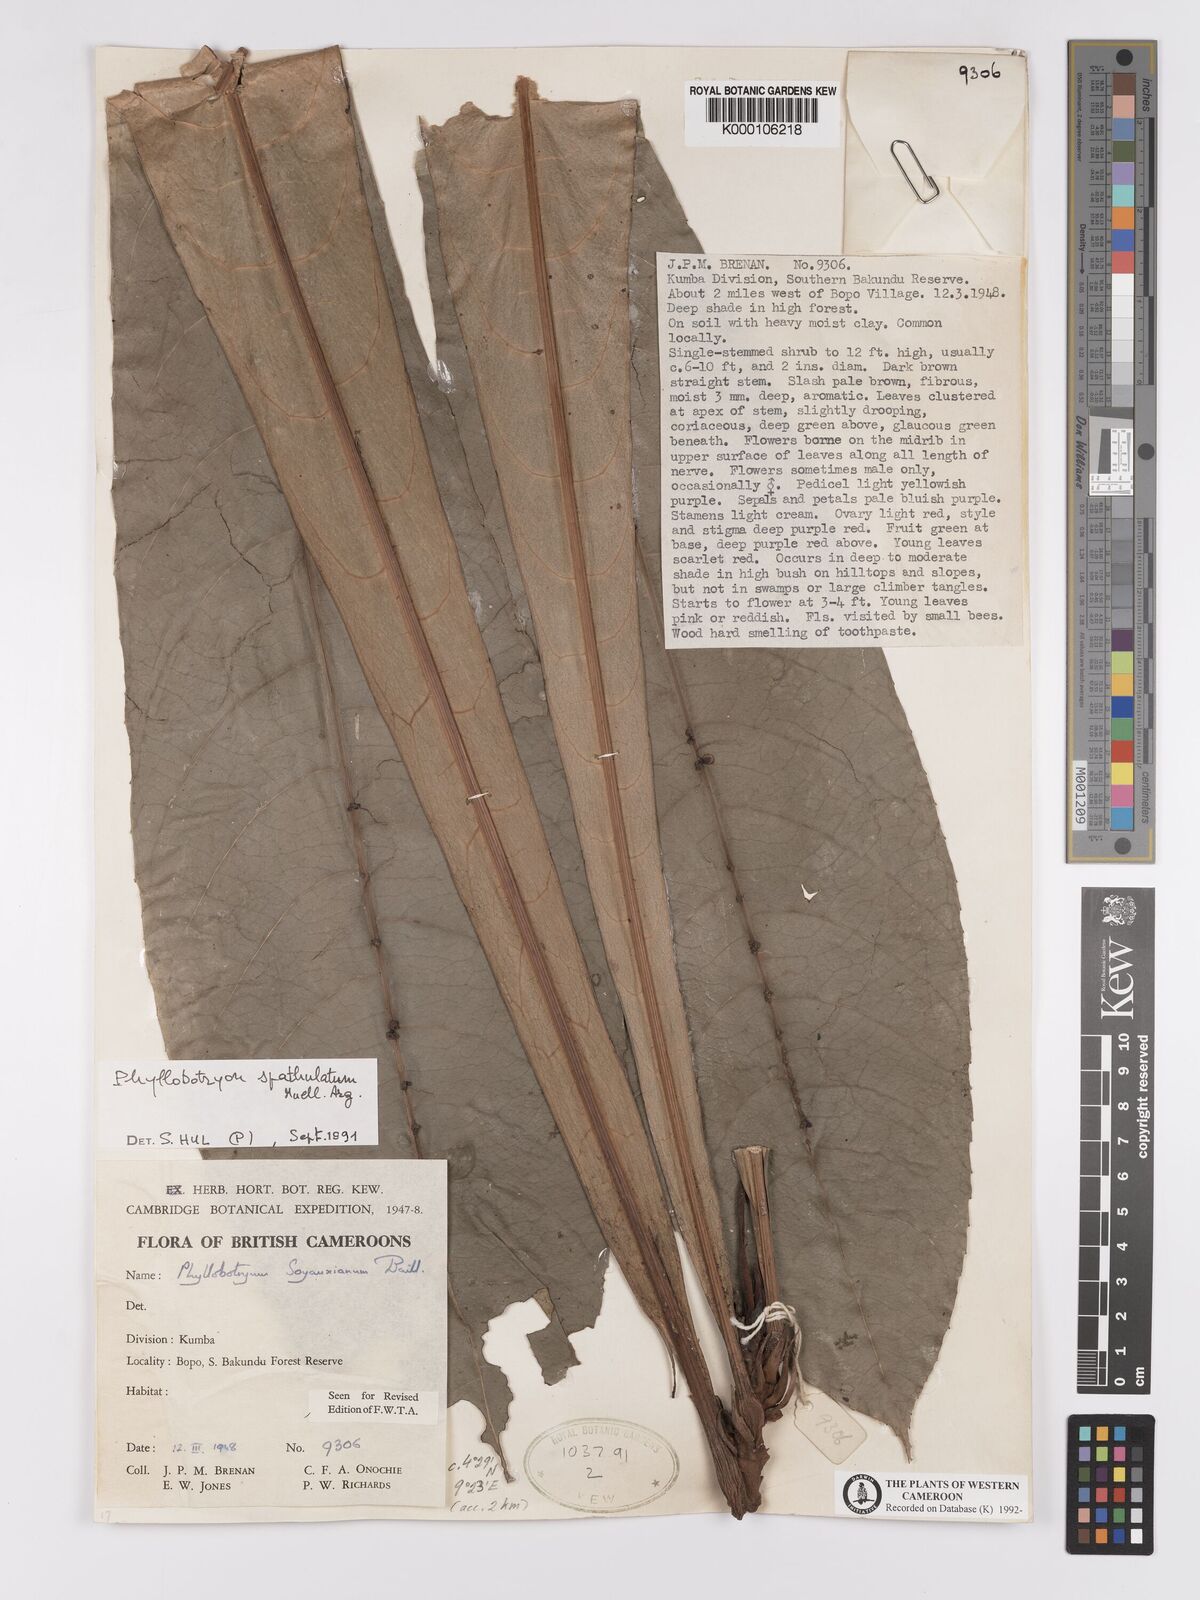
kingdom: Plantae
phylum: Tracheophyta
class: Magnoliopsida
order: Malpighiales
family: Salicaceae
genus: Phyllobotryon
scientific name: Phyllobotryon
